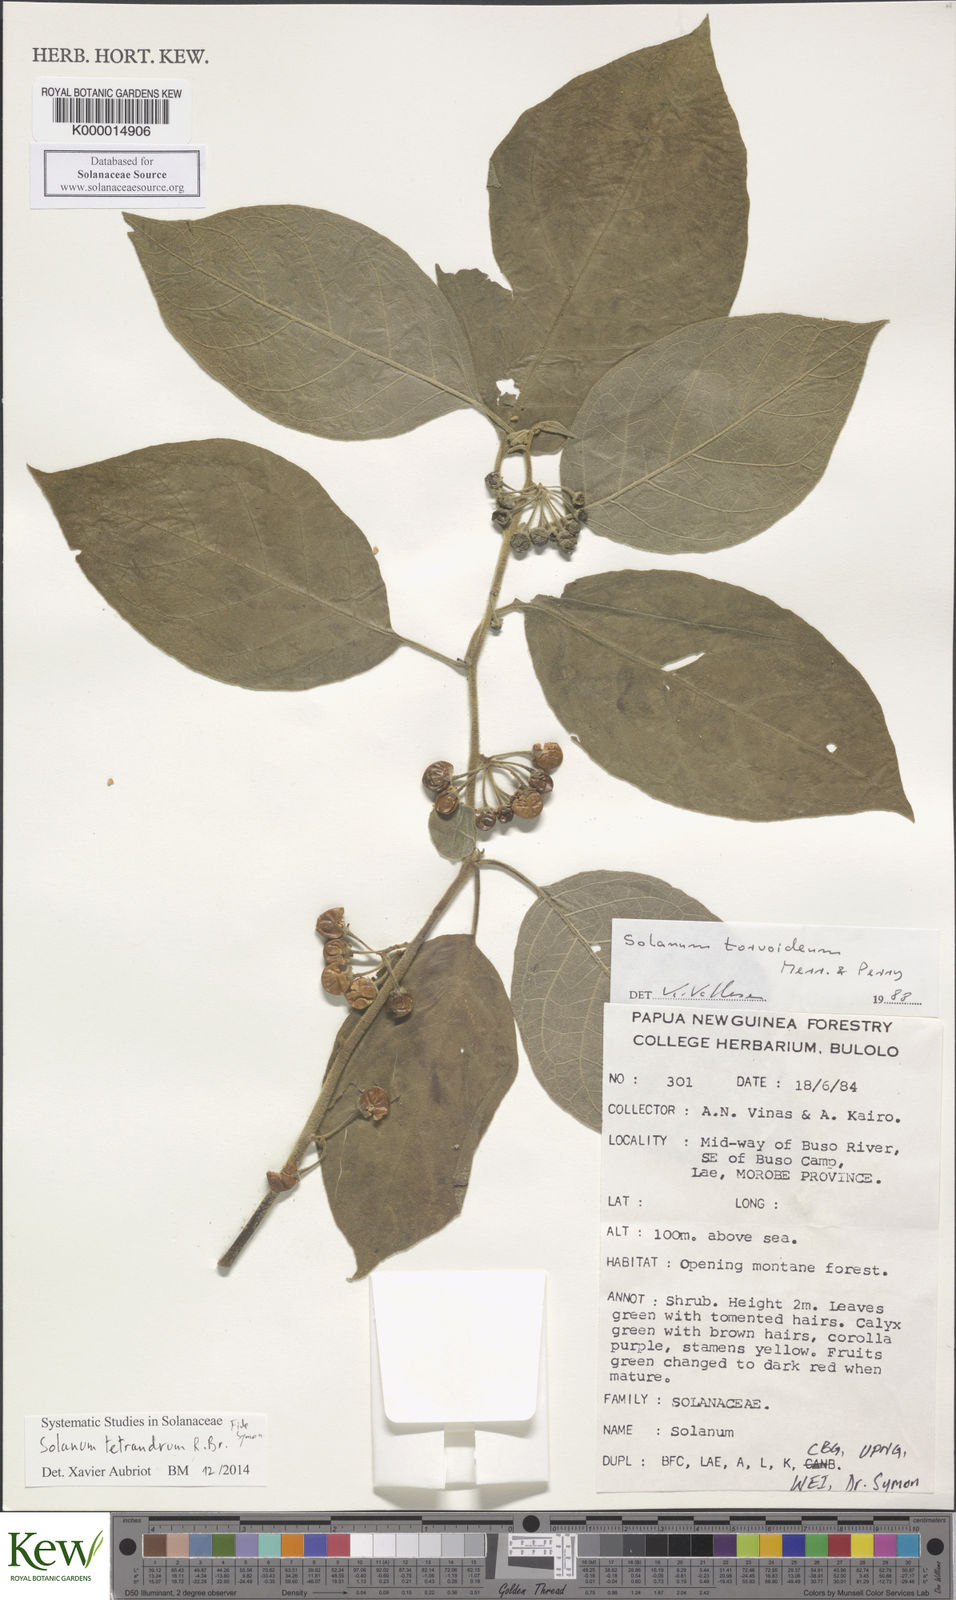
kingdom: Plantae
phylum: Tracheophyta
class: Magnoliopsida
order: Solanales
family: Solanaceae
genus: Solanum
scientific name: Solanum tetrandrum
